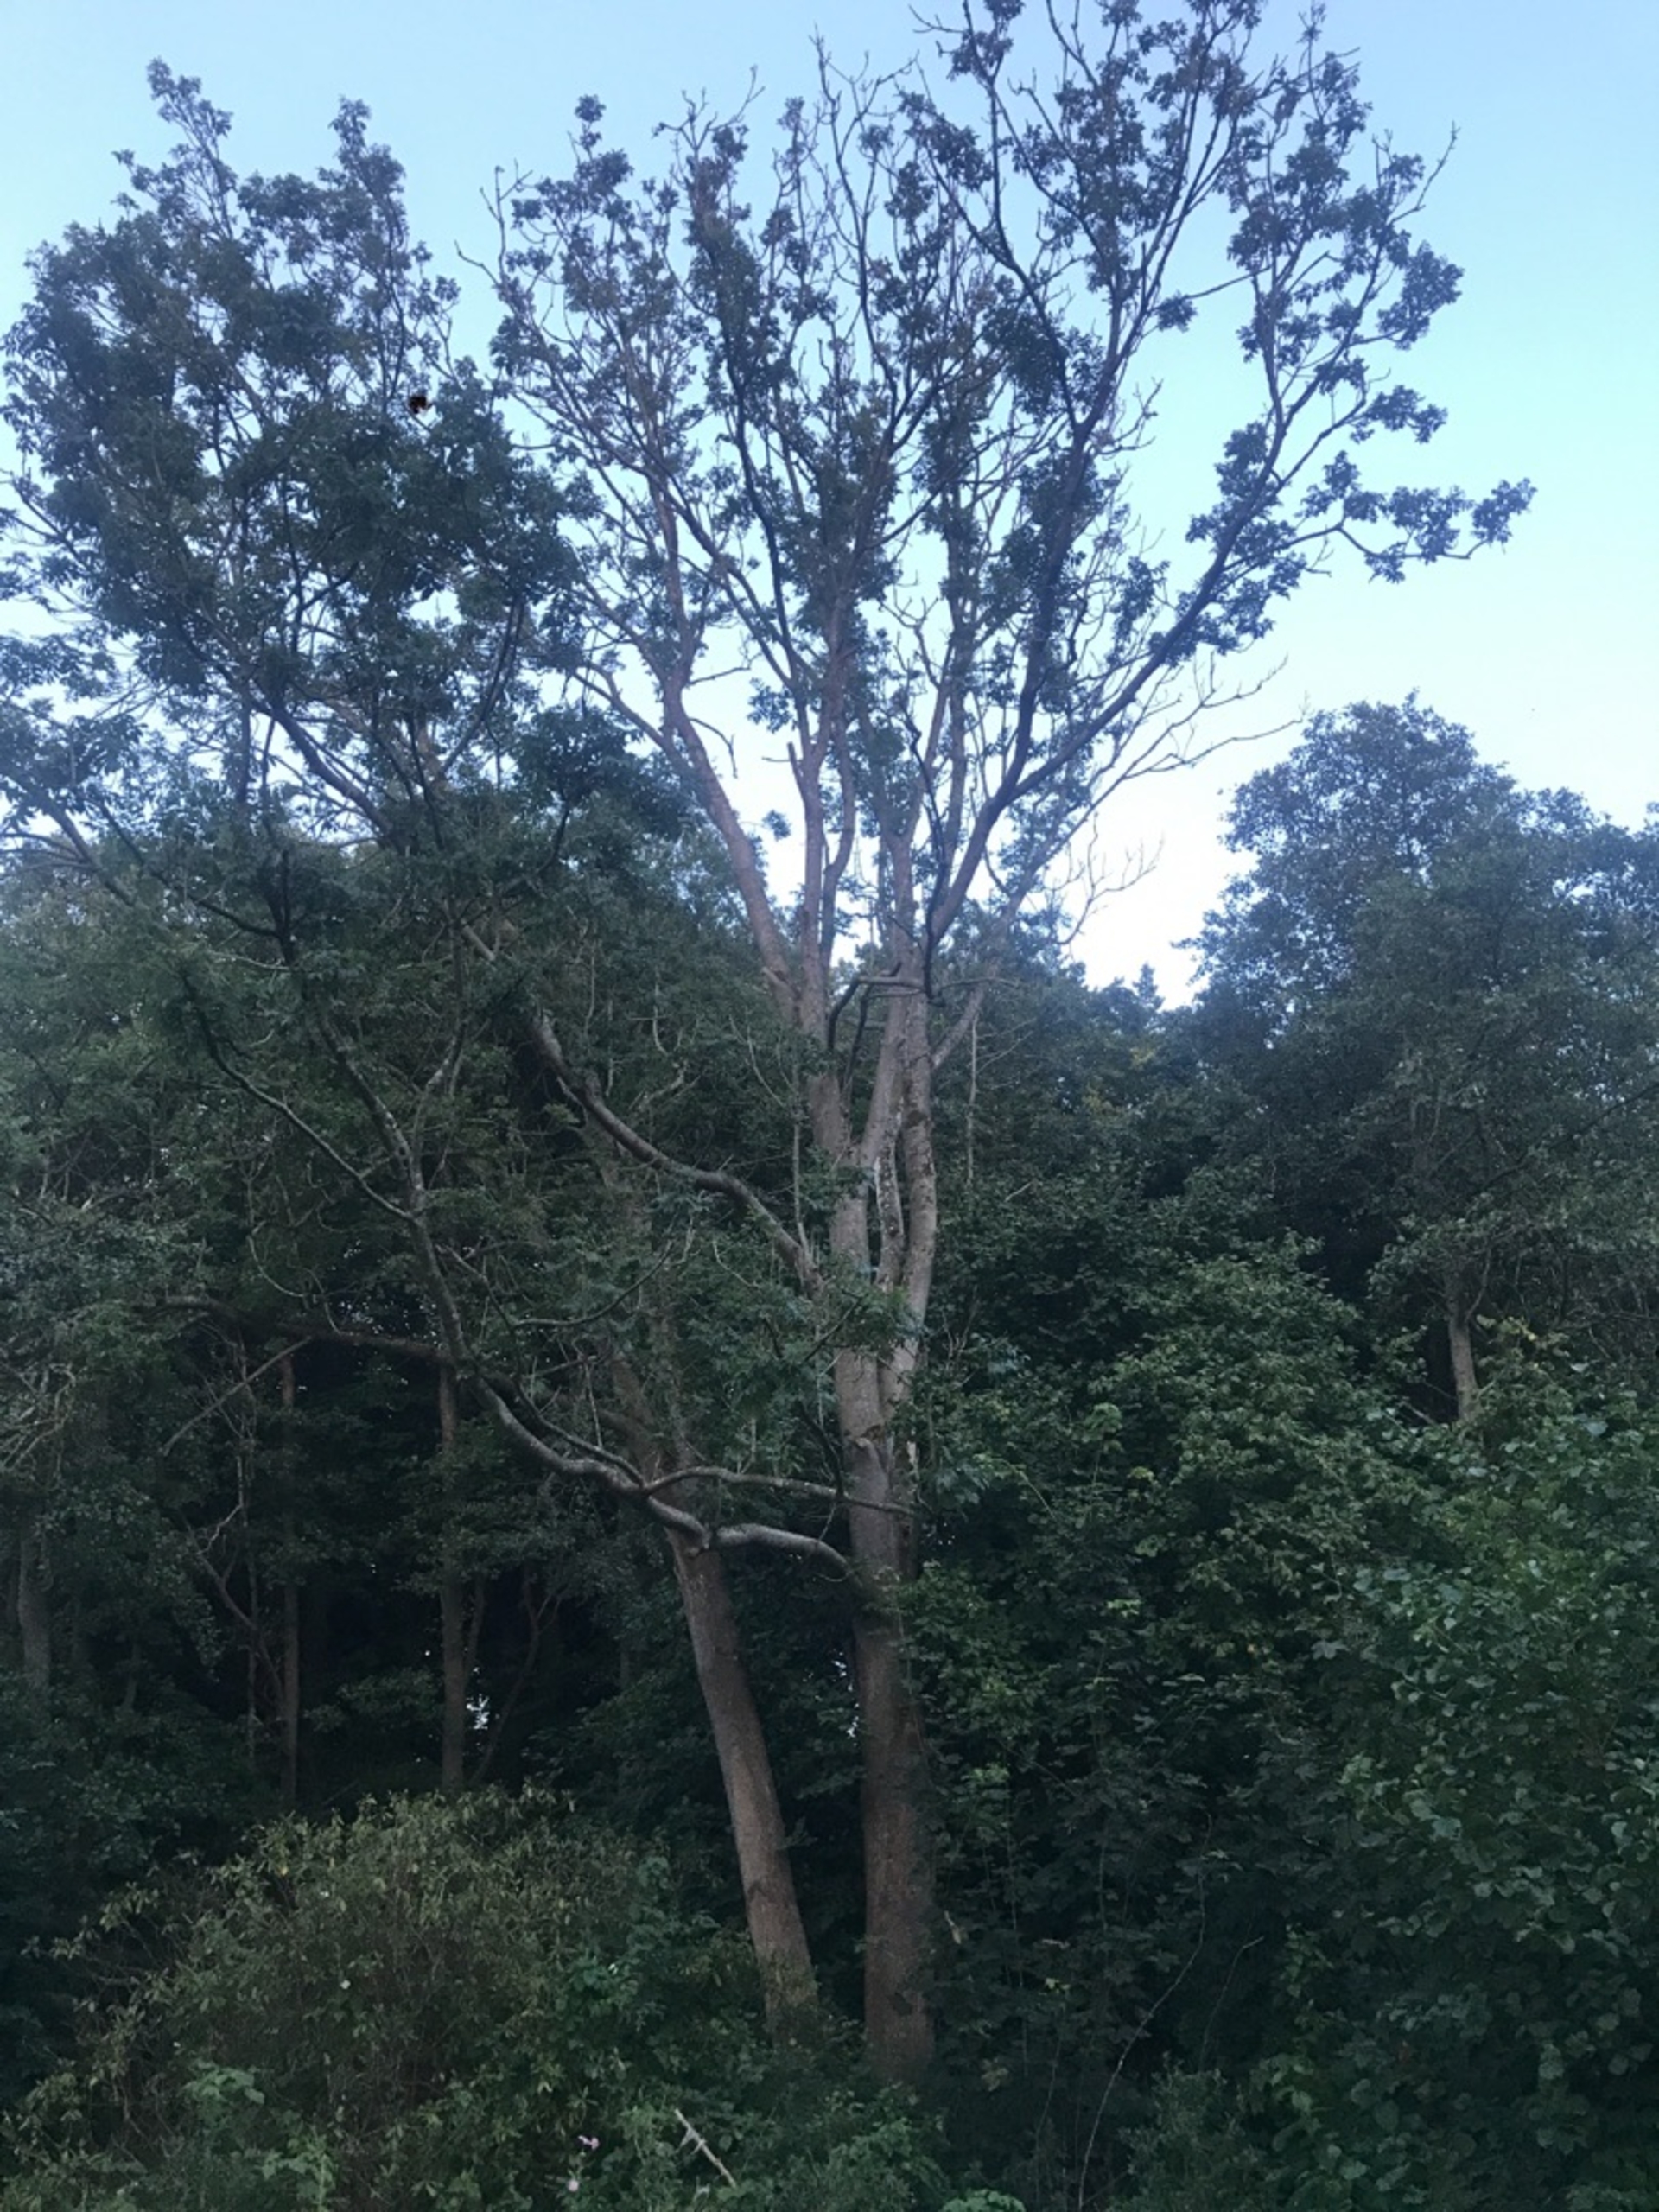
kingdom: Plantae
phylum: Tracheophyta
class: Magnoliopsida
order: Lamiales
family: Oleaceae
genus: Fraxinus
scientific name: Fraxinus excelsior
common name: Ask
